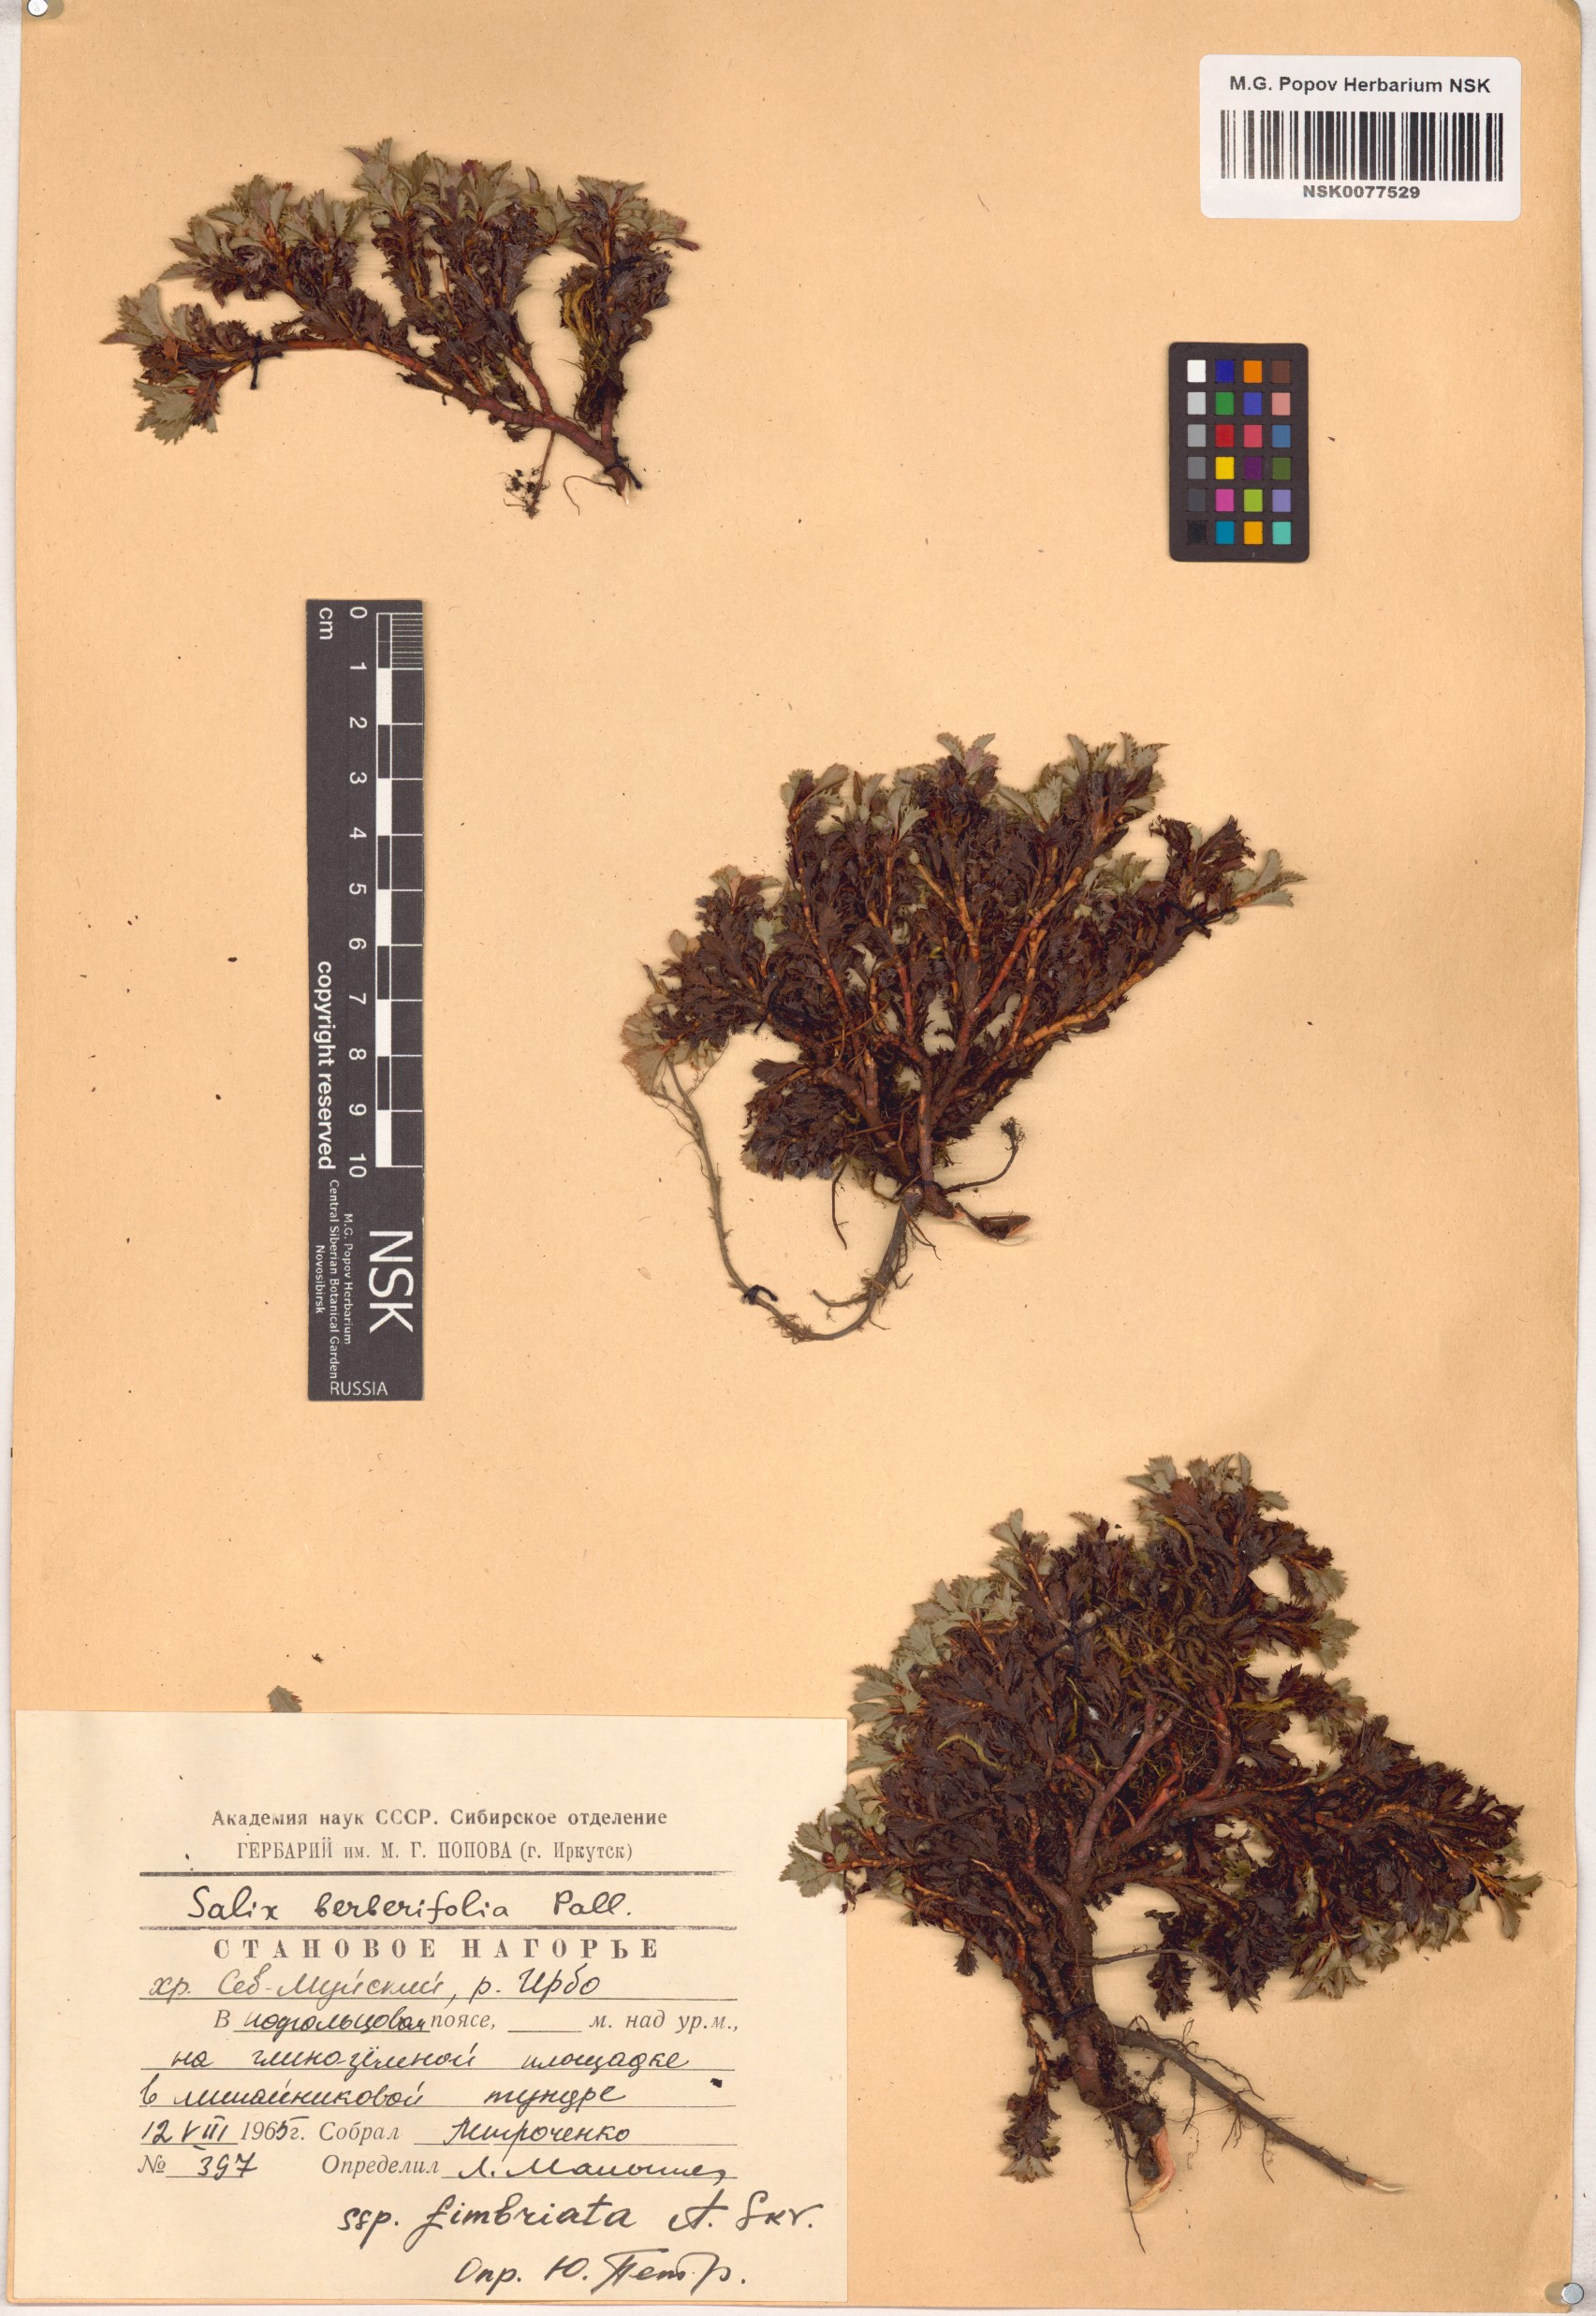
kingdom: Plantae
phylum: Tracheophyta
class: Magnoliopsida
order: Malpighiales
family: Salicaceae
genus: Salix
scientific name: Salix berberifolia
